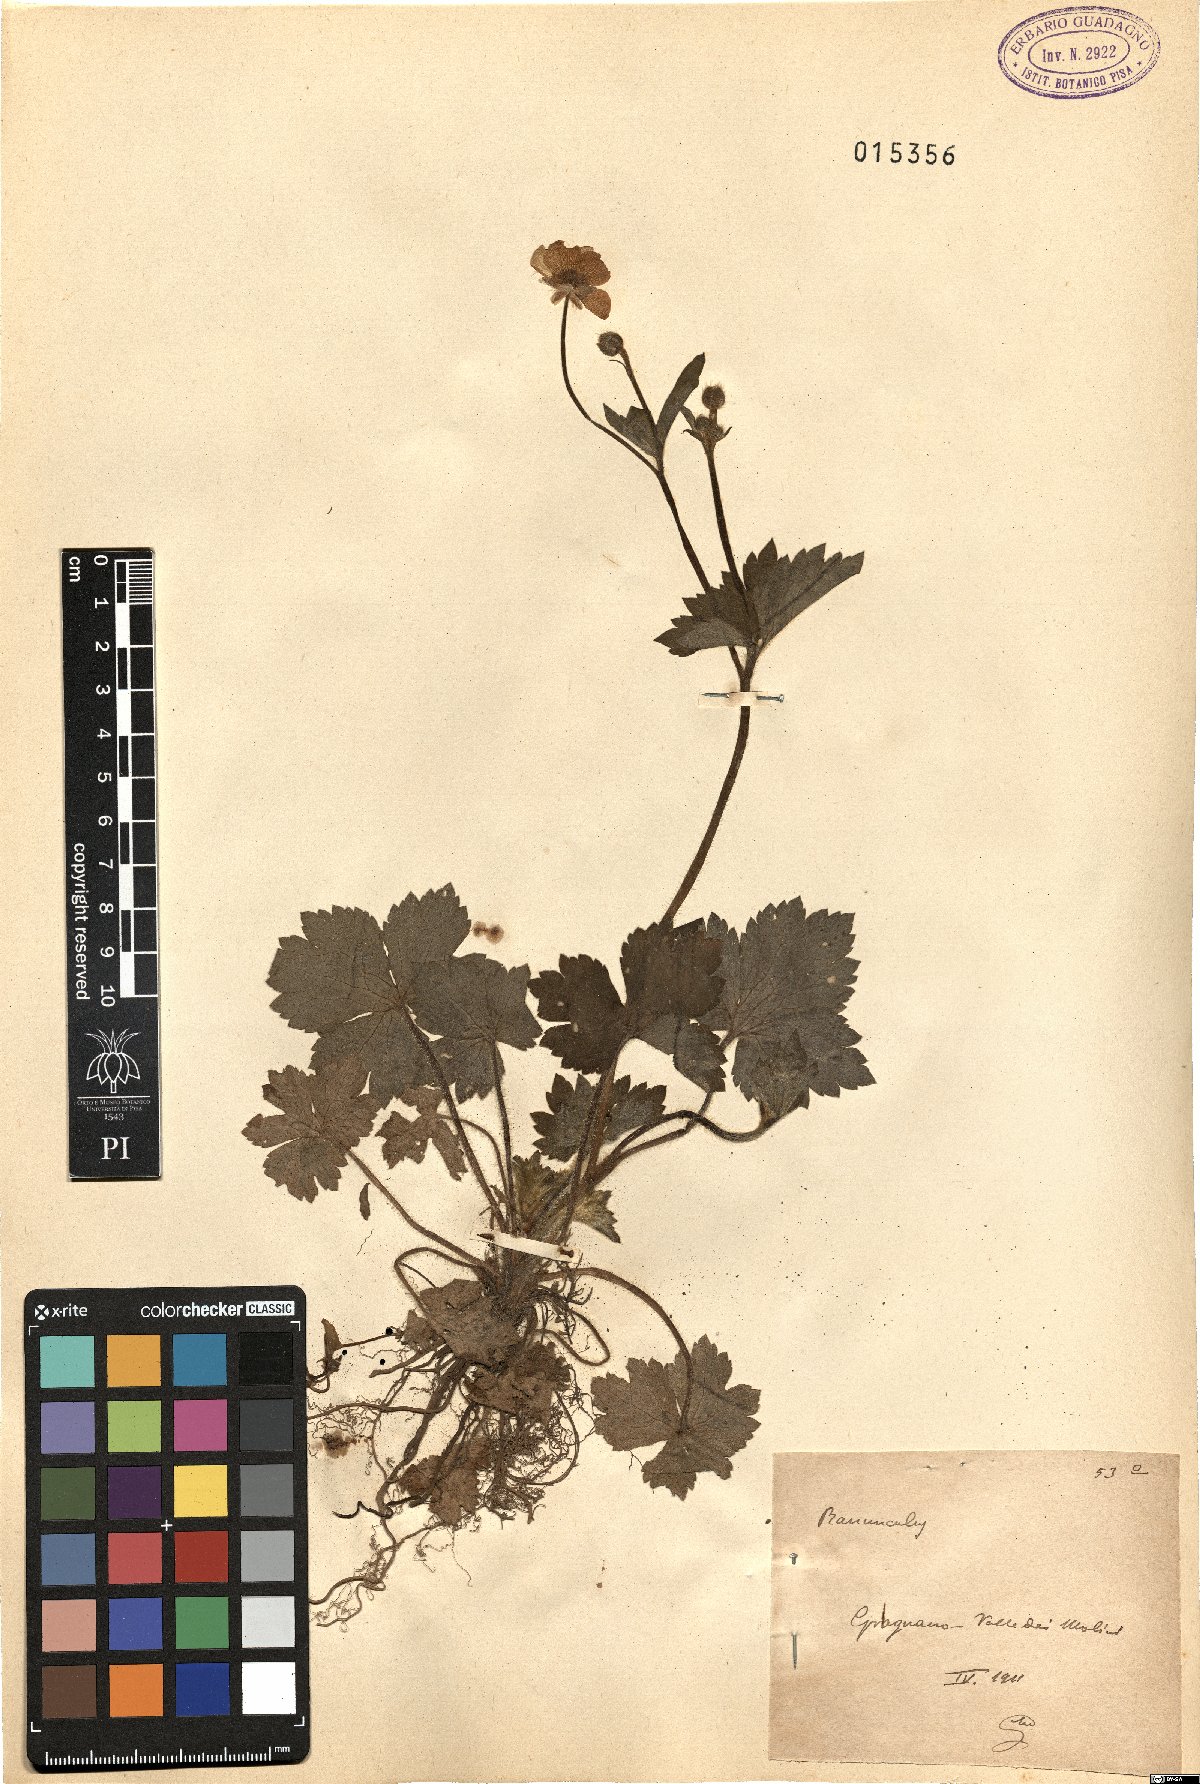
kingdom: Plantae
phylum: Tracheophyta
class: Magnoliopsida
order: Ranunculales
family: Ranunculaceae
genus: Ranunculus
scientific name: Ranunculus lanuginosus
